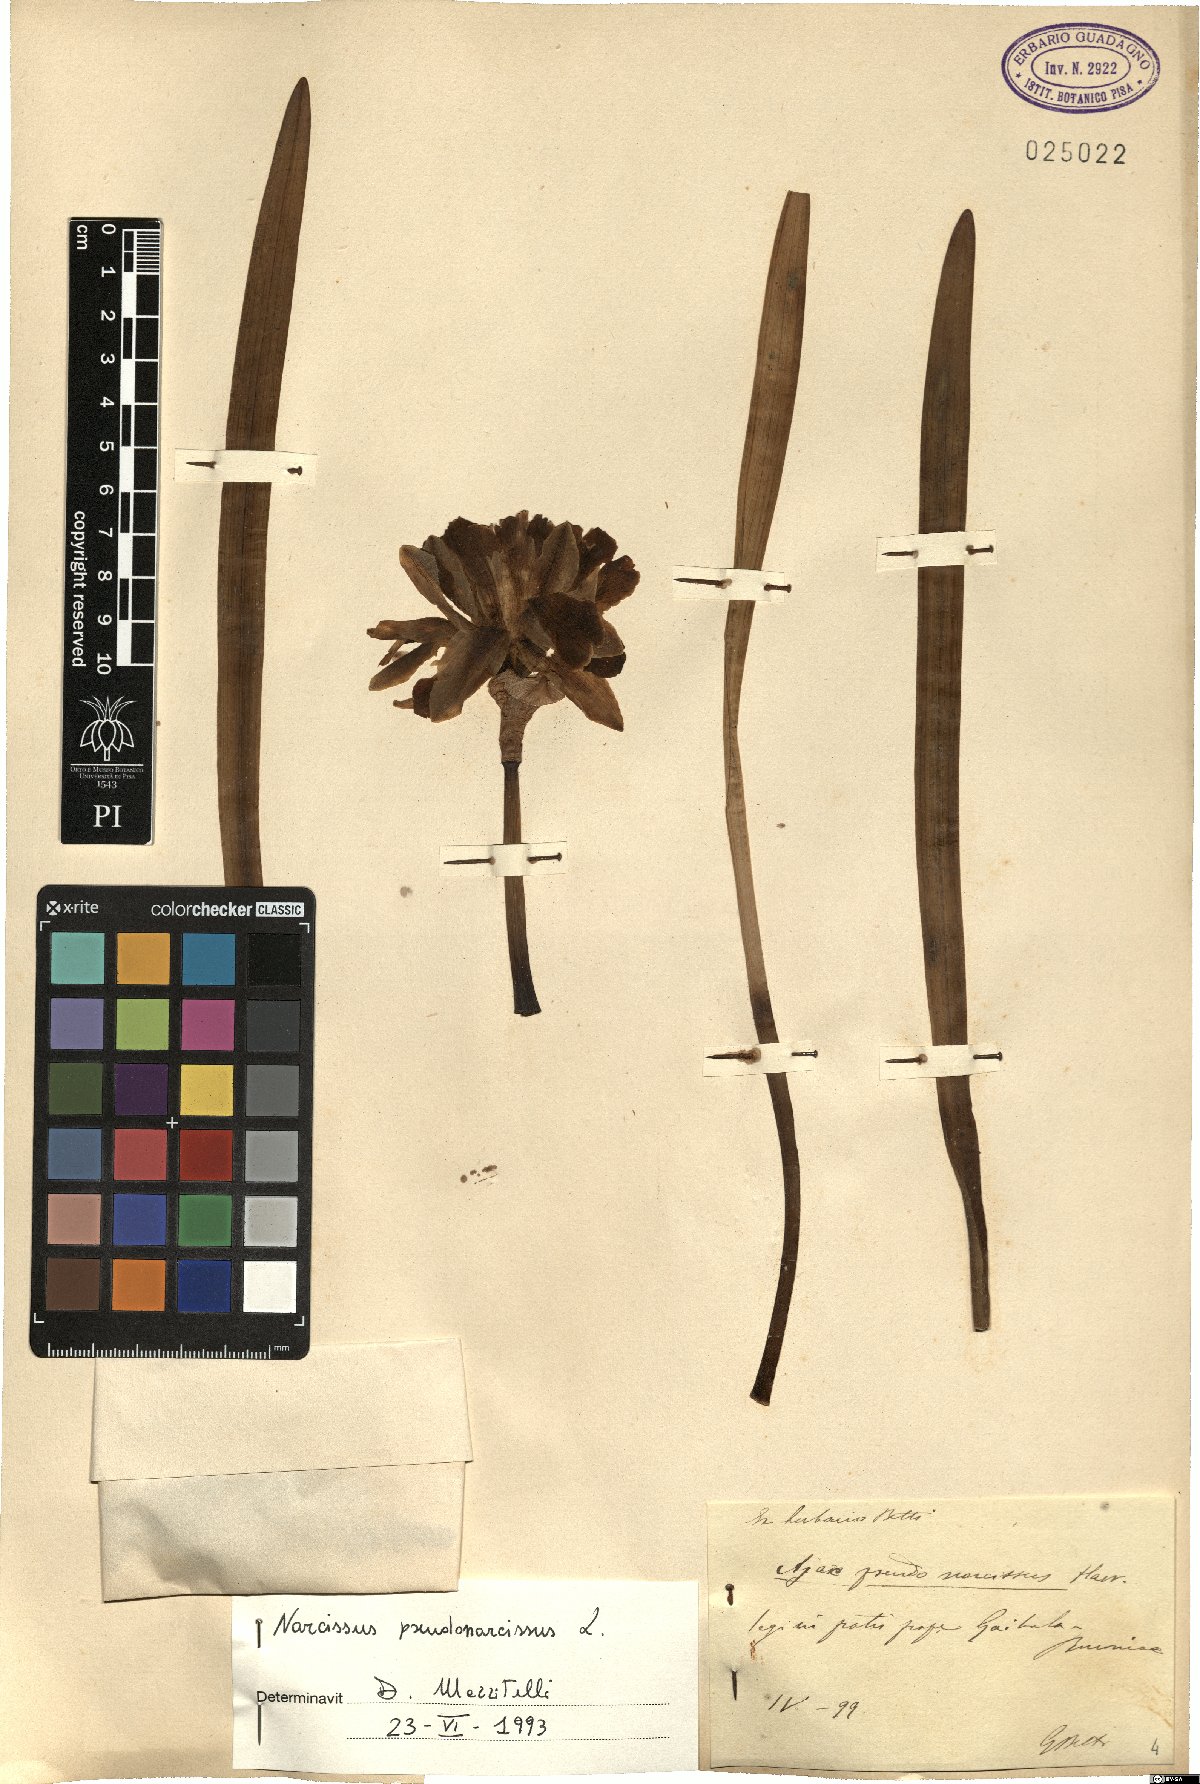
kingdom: Plantae
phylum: Tracheophyta
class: Liliopsida
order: Asparagales
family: Amaryllidaceae
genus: Narcissus
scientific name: Narcissus pseudonarcissus
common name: Daffodil
